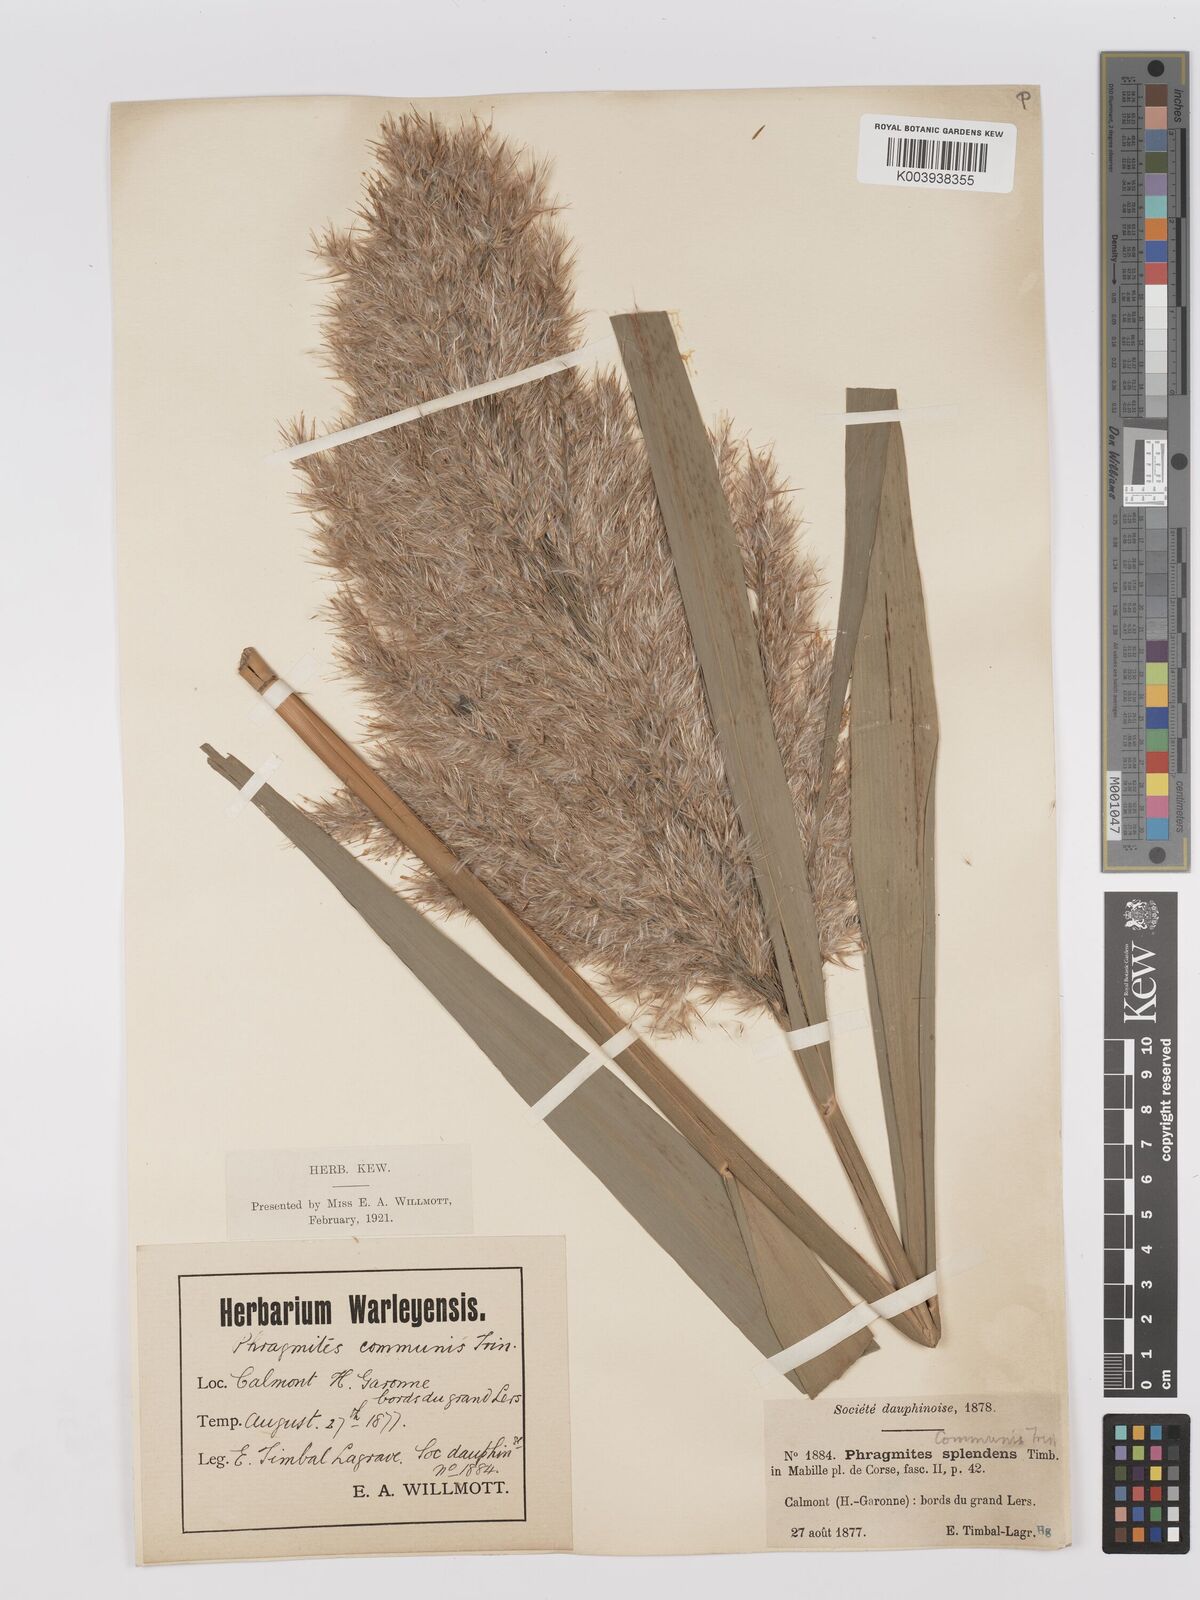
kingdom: Plantae
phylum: Tracheophyta
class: Liliopsida
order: Poales
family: Poaceae
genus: Phragmites
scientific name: Phragmites australis
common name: Common reed
